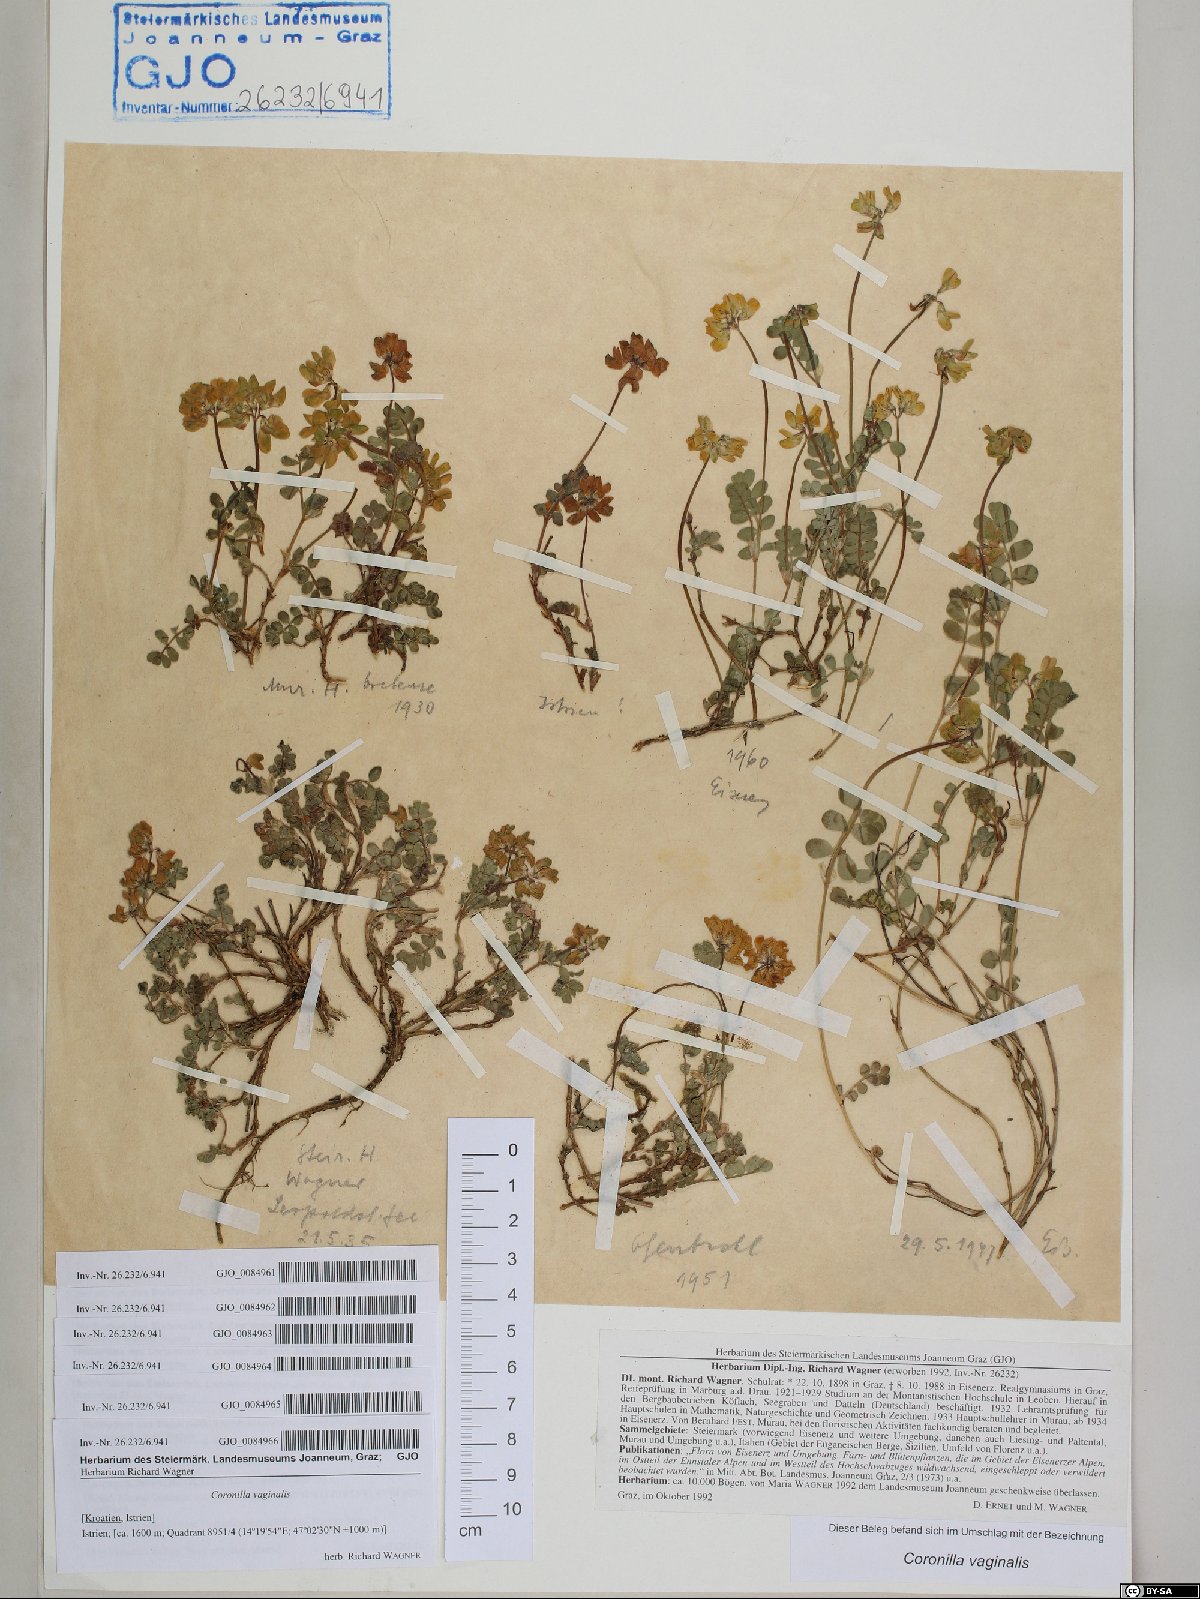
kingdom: Plantae
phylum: Tracheophyta
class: Magnoliopsida
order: Fabales
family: Fabaceae
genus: Coronilla
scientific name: Coronilla vaginalis
